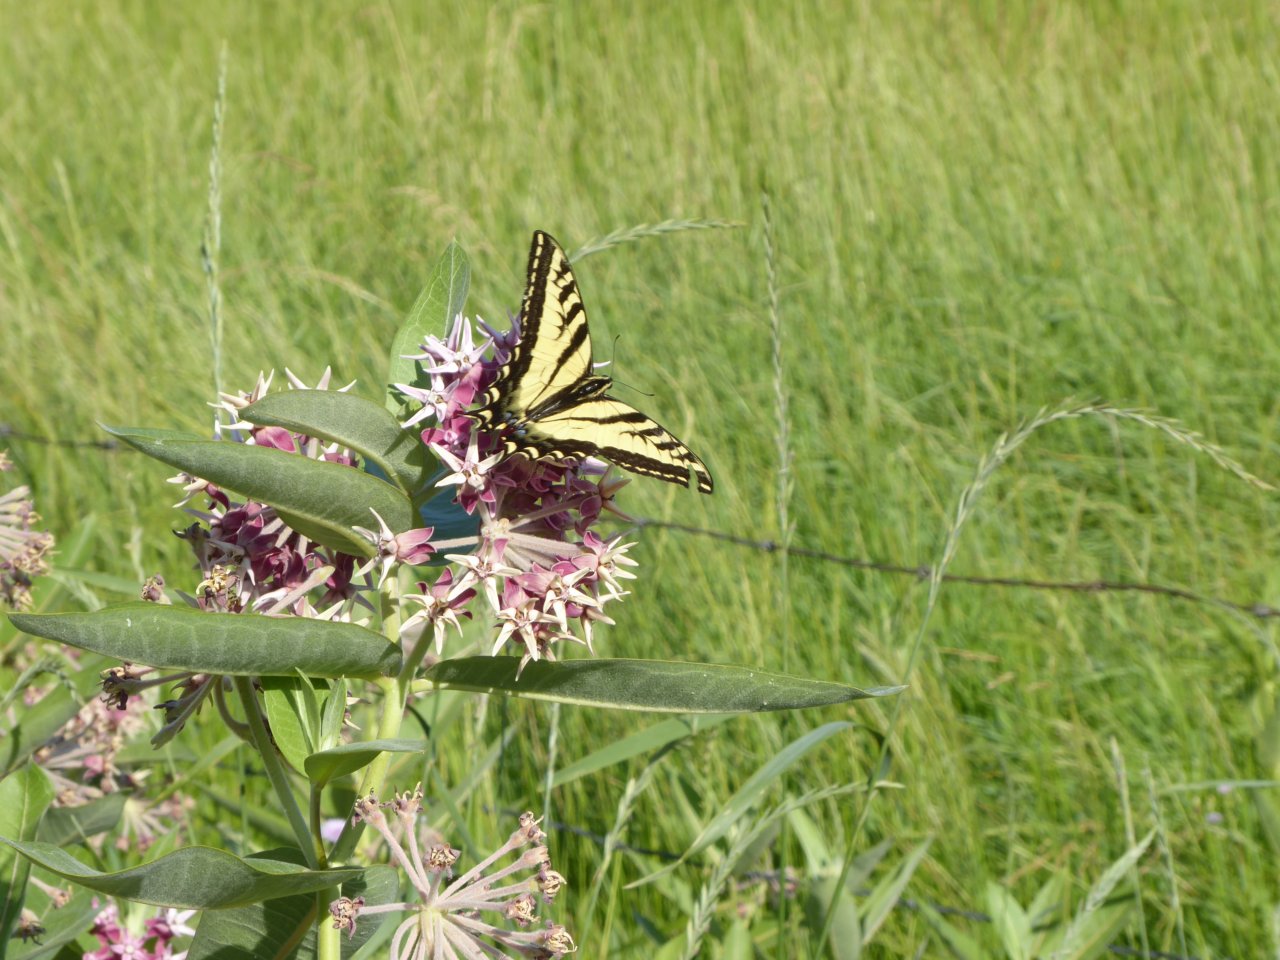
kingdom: Animalia
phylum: Arthropoda
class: Insecta
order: Lepidoptera
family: Papilionidae
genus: Pterourus
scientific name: Pterourus canadensis
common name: Canadian Tiger Swallowtail
